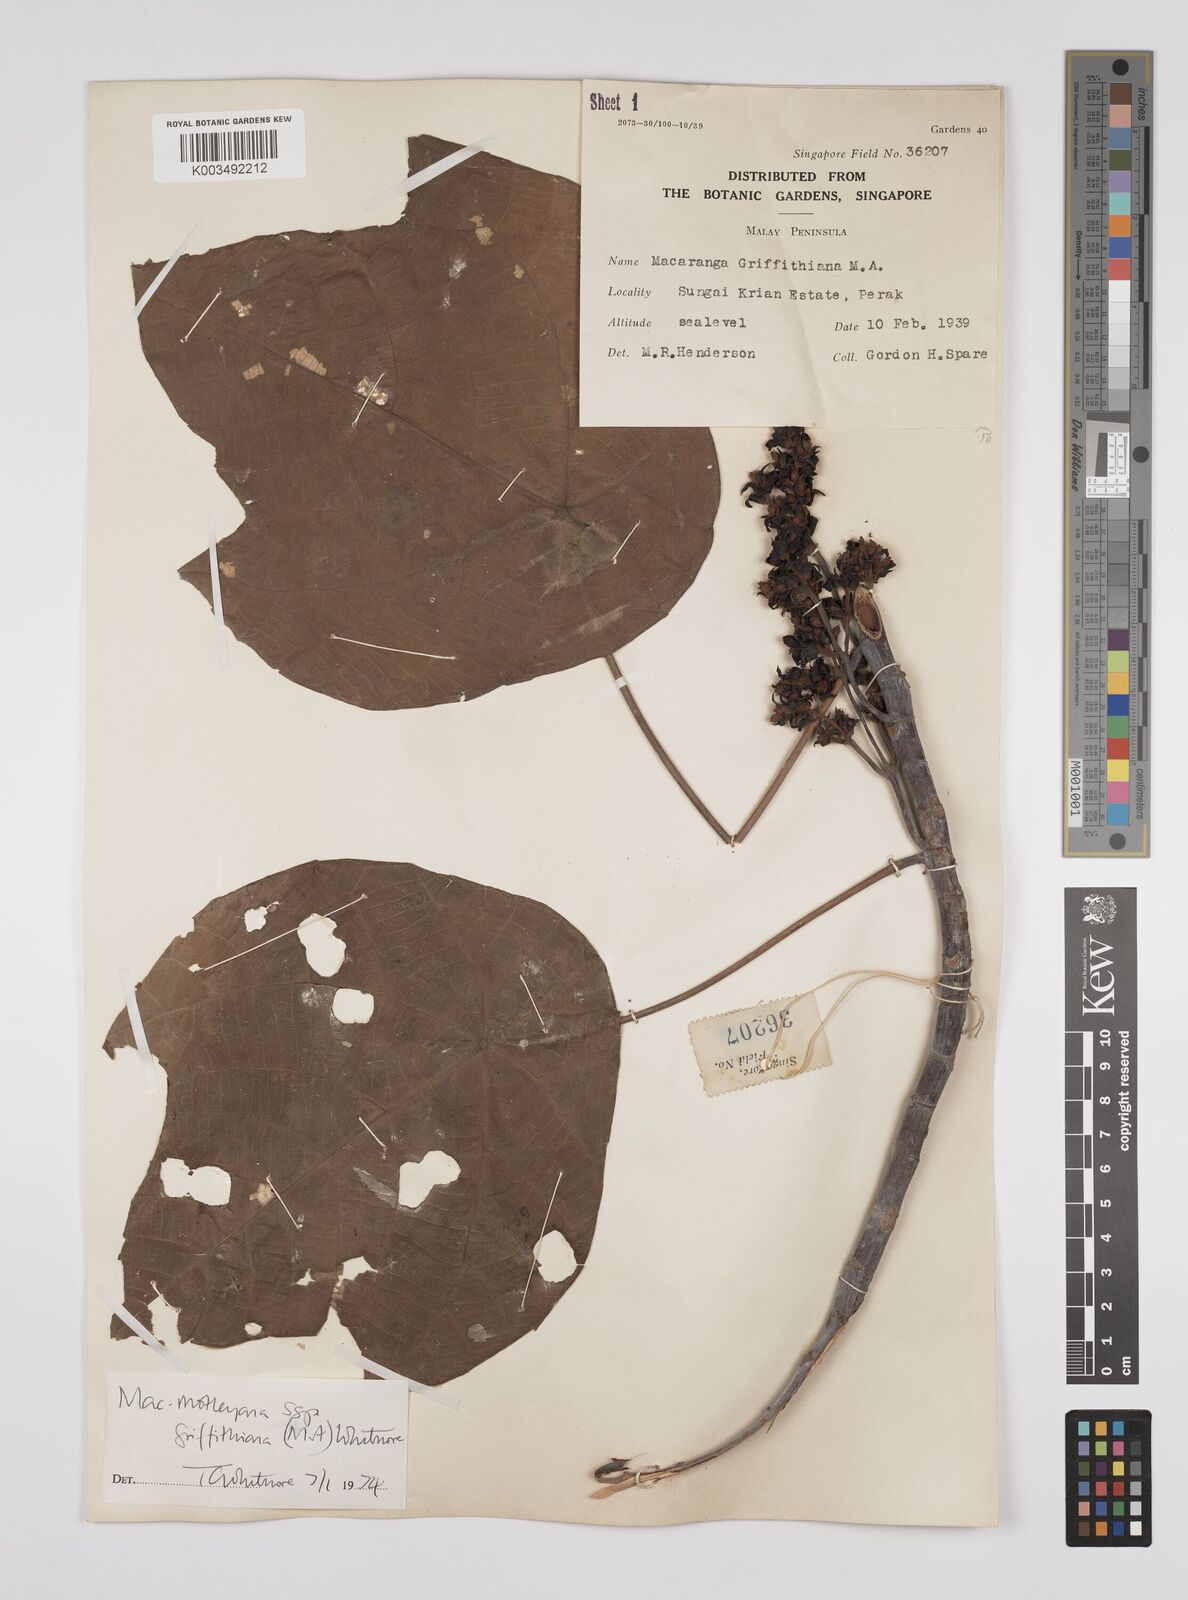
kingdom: Plantae
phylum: Tracheophyta
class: Magnoliopsida
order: Malpighiales
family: Euphorbiaceae
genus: Macaranga
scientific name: Macaranga griffithiana
